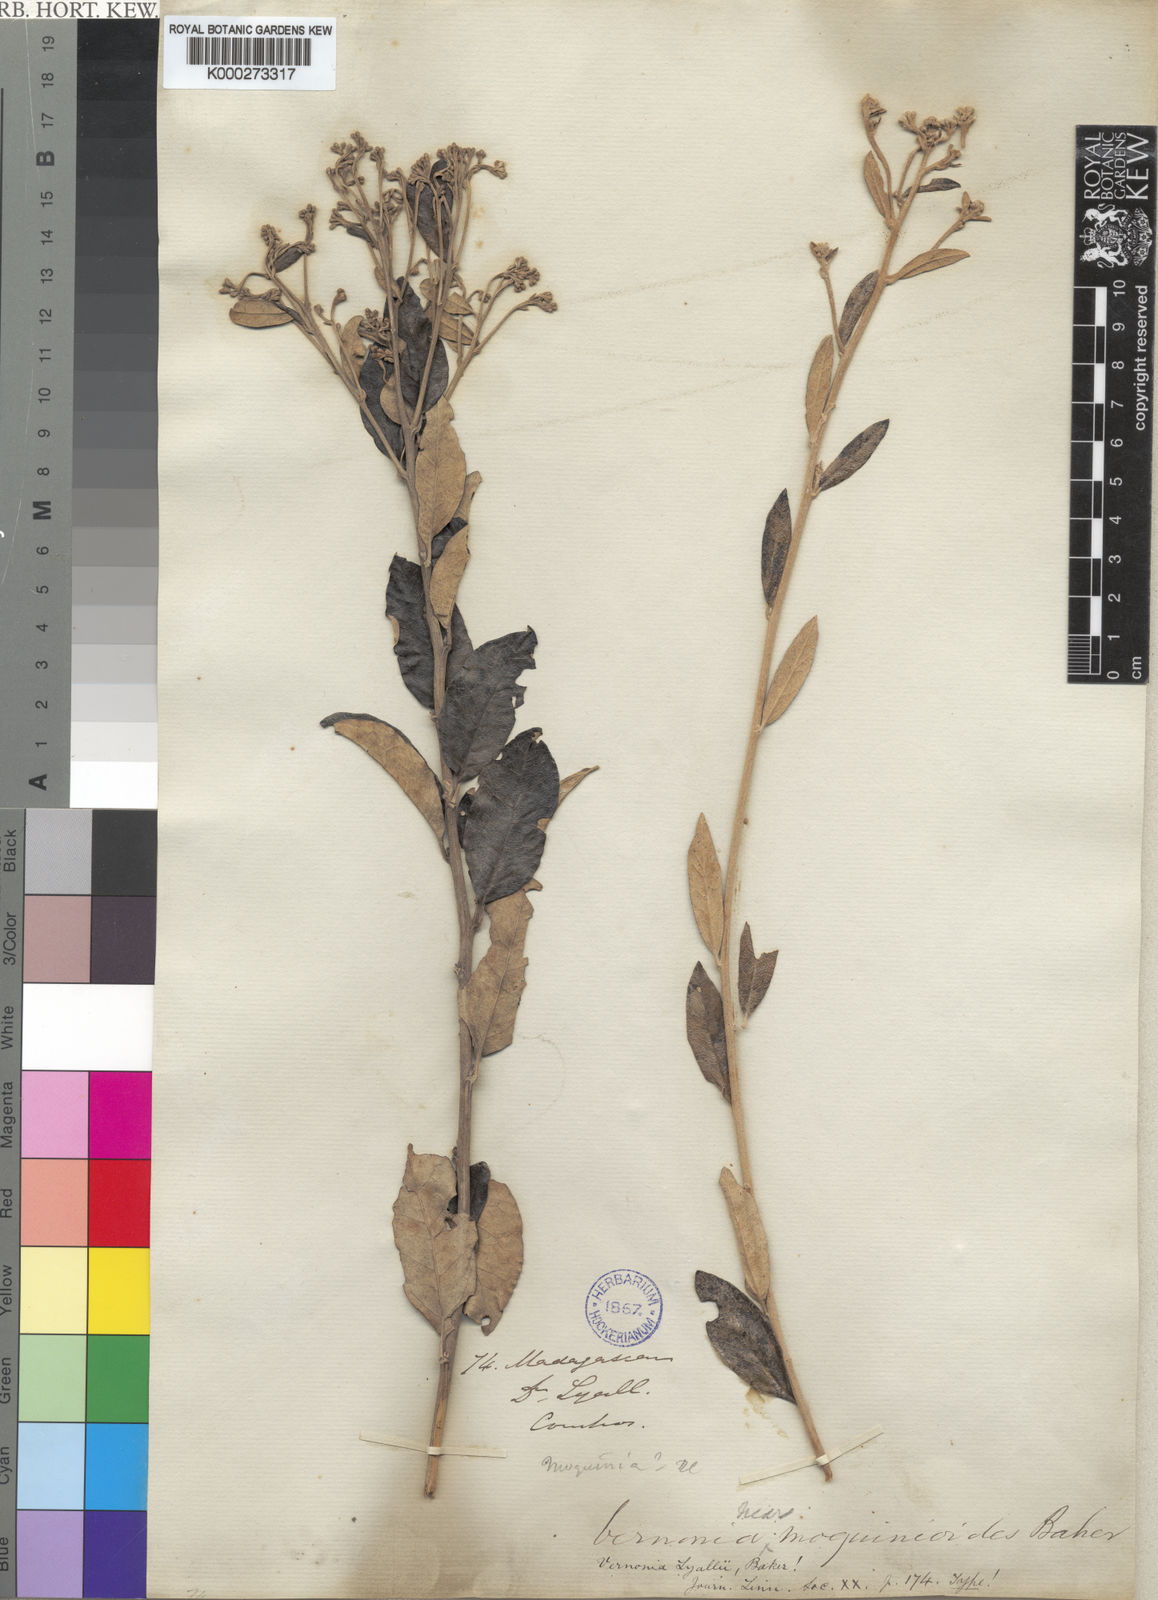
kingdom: Plantae
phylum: Tracheophyta
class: Magnoliopsida
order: Asterales
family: Asteraceae
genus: Distephanus
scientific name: Distephanus garnierianus
